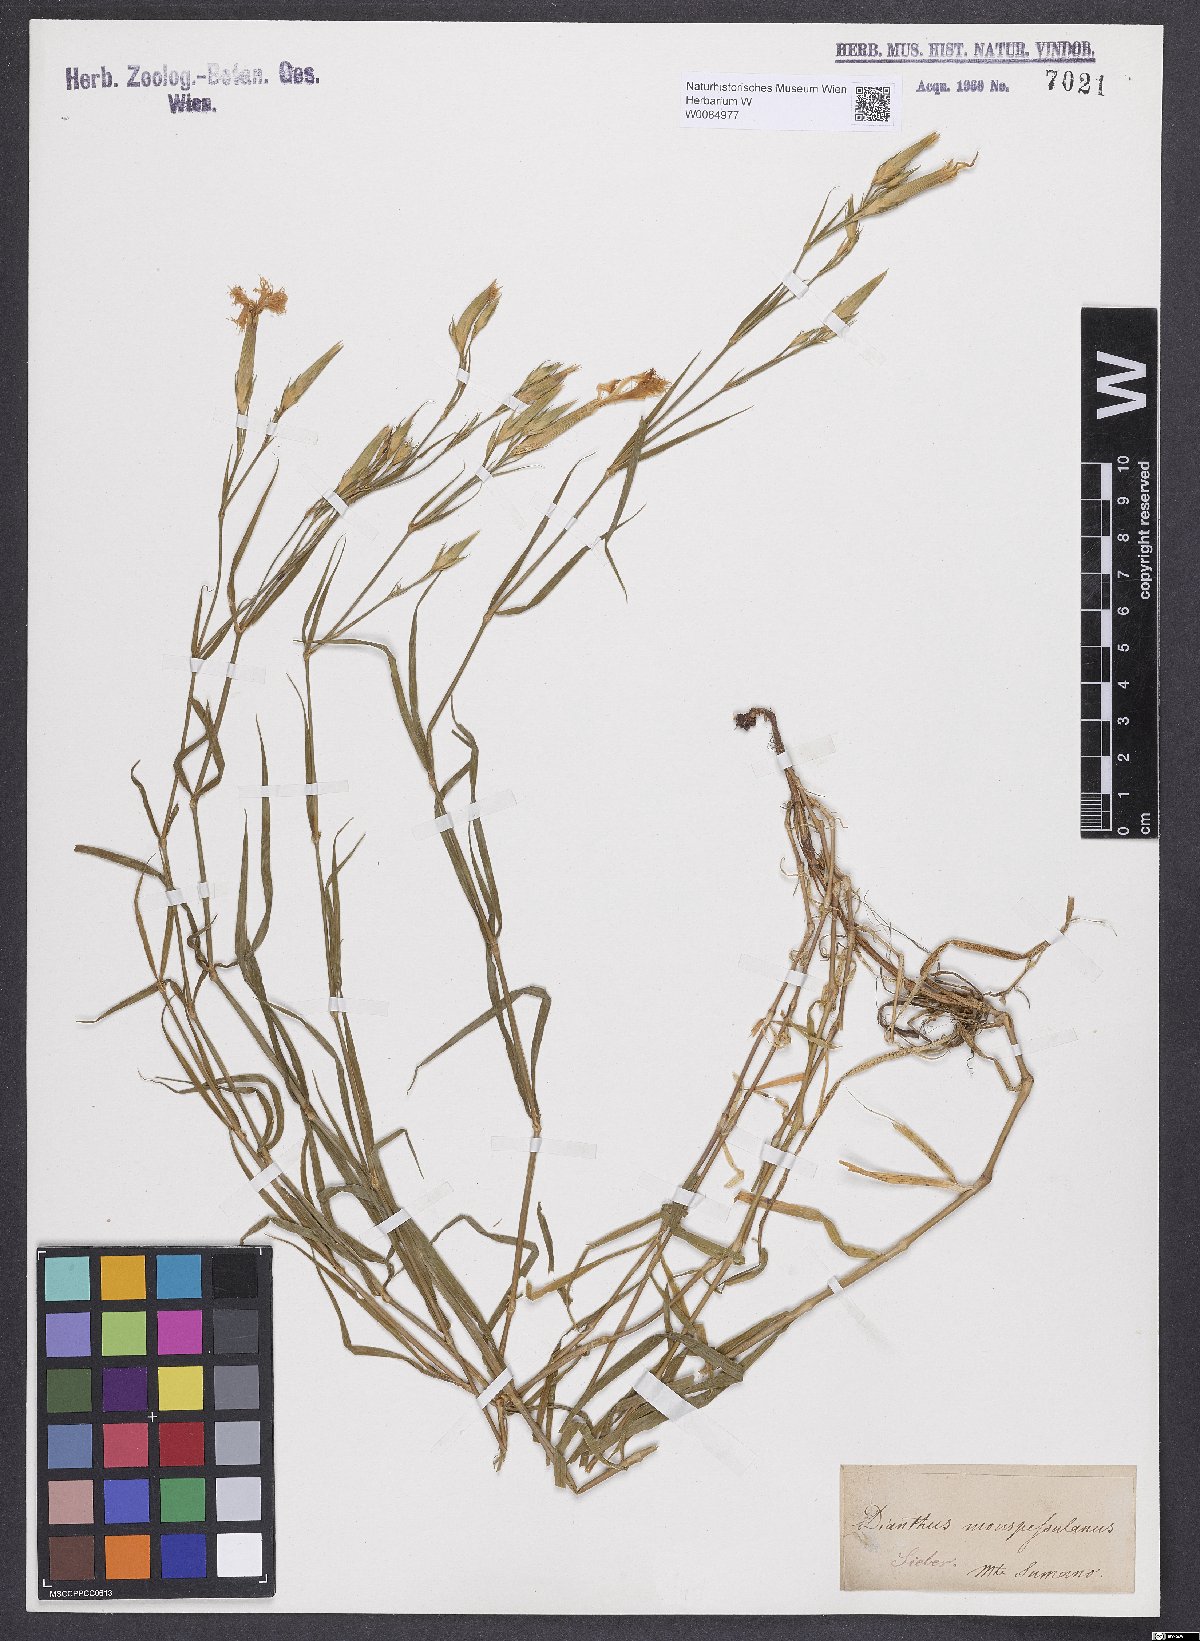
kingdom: Plantae
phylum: Tracheophyta
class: Magnoliopsida
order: Ericales
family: Ericaceae
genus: Rhodothamnus
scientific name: Rhodothamnus chamaecistus
